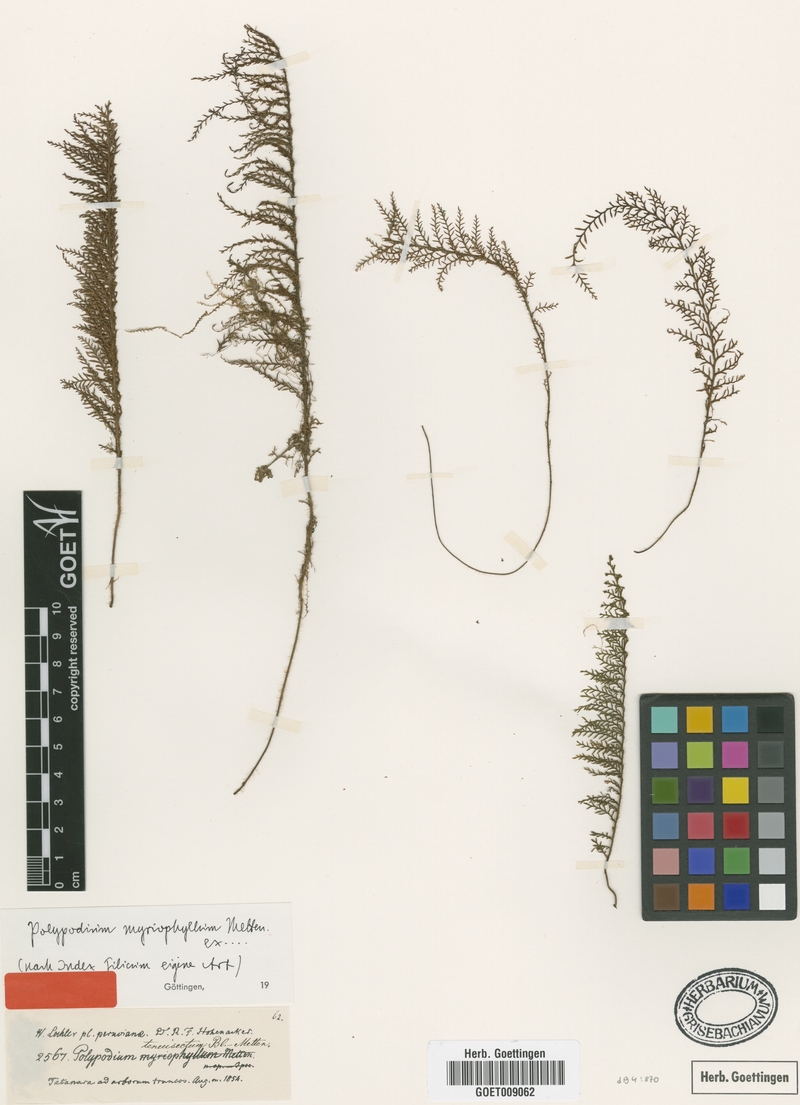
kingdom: Plantae
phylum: Tracheophyta
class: Polypodiopsida
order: Polypodiales
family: Polypodiaceae
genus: Moranopteris
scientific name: Moranopteris longisetosa
